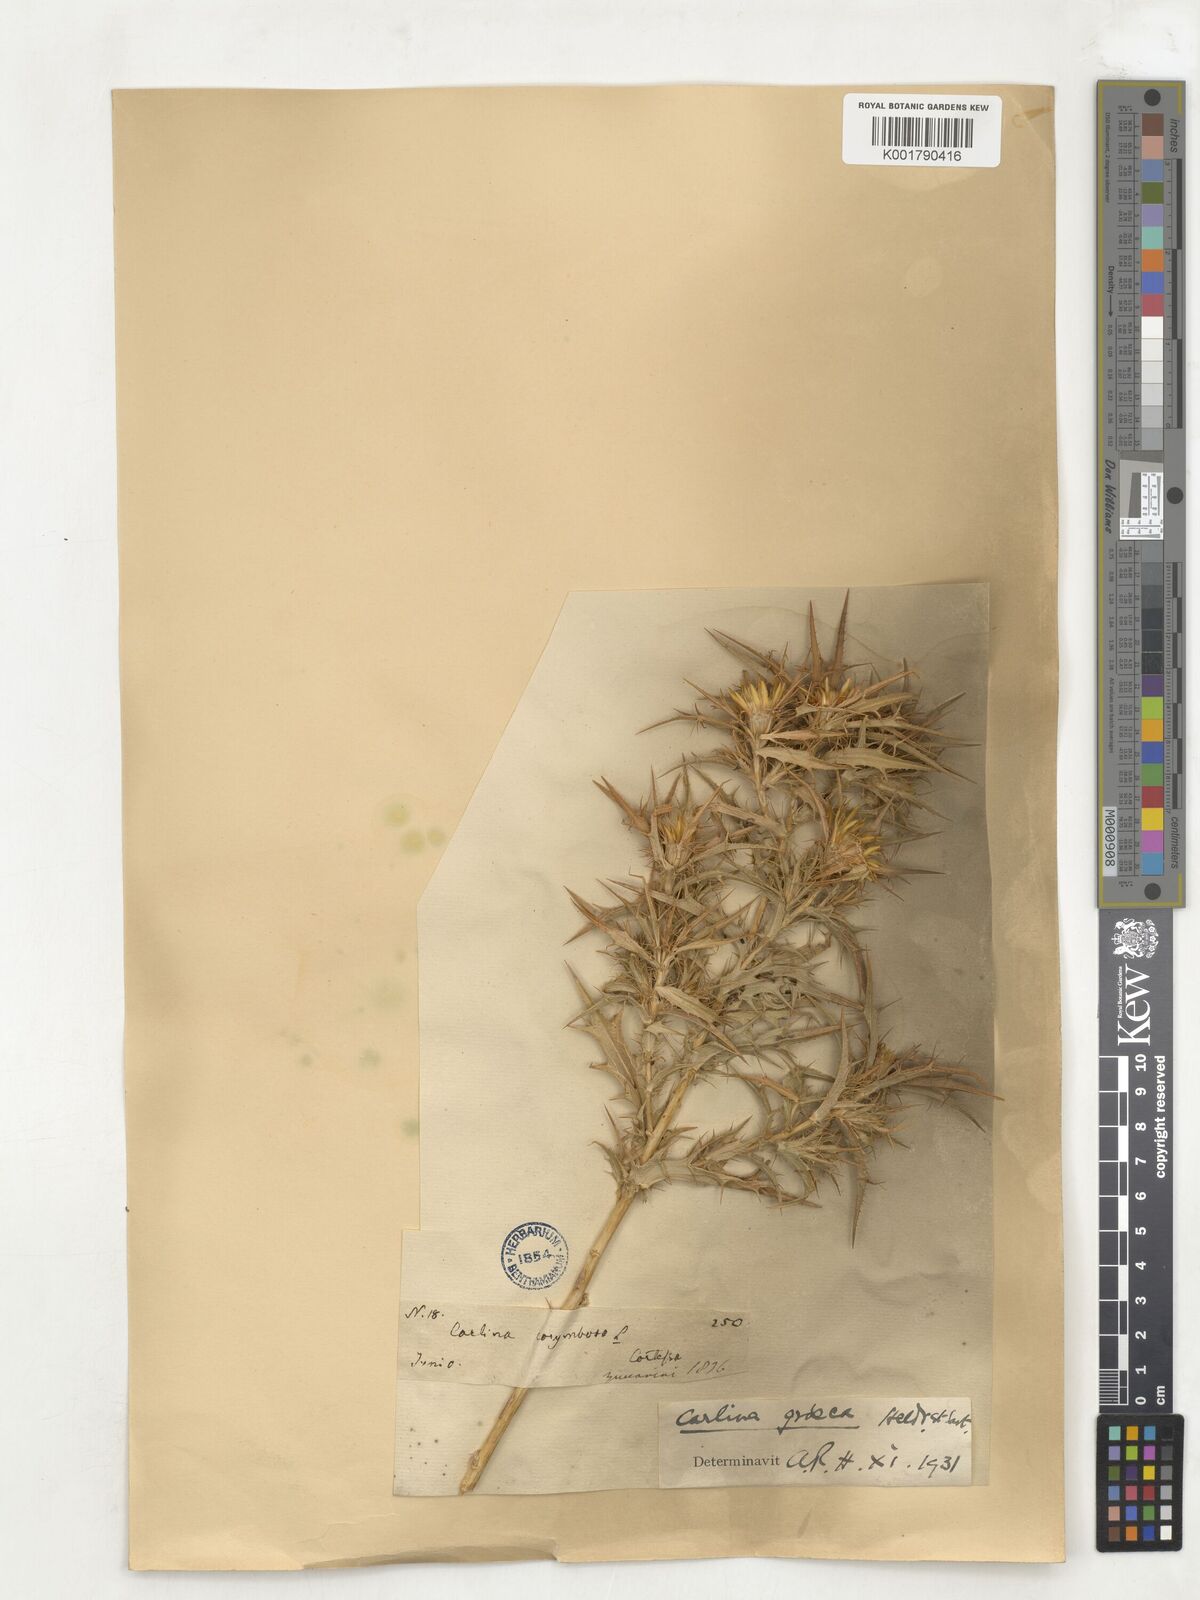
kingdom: Plantae
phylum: Tracheophyta
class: Magnoliopsida
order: Asterales
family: Asteraceae
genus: Carlina
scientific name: Carlina graeca
